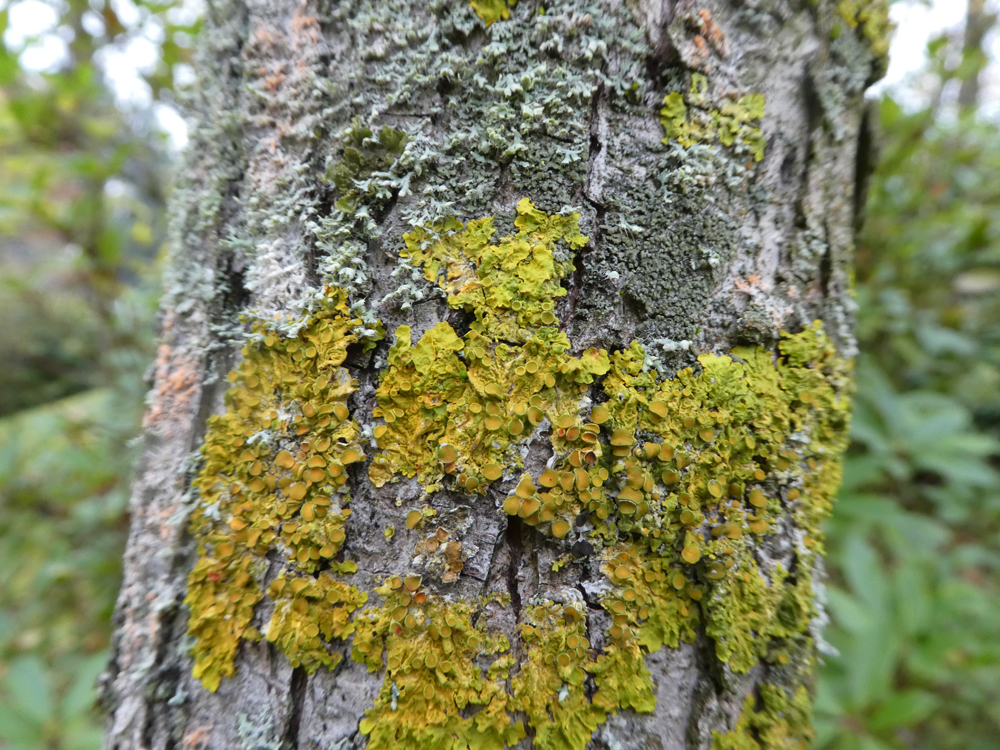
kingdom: Fungi
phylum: Ascomycota
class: Lecanoromycetes
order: Teloschistales
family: Teloschistaceae
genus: Xanthoria
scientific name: Xanthoria parietina
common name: Common orange lichen
